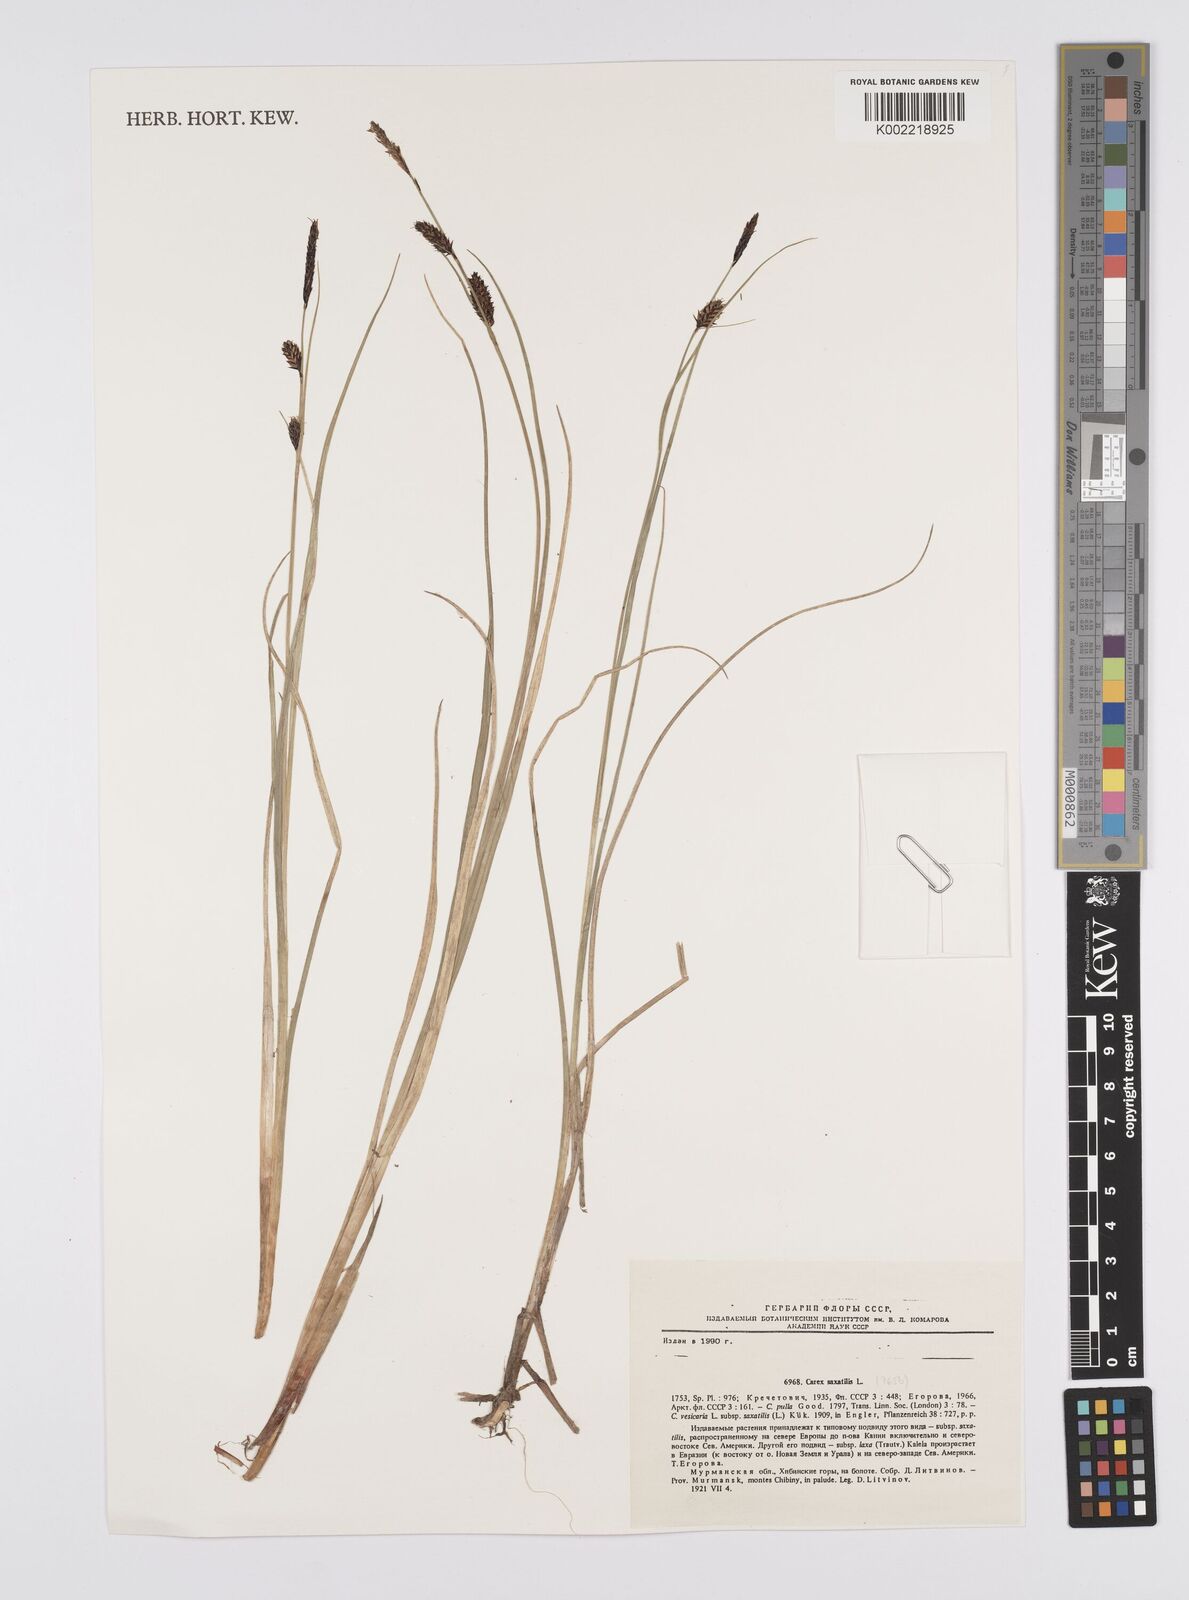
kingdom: Plantae
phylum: Tracheophyta
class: Liliopsida
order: Poales
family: Cyperaceae
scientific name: Cyperaceae
